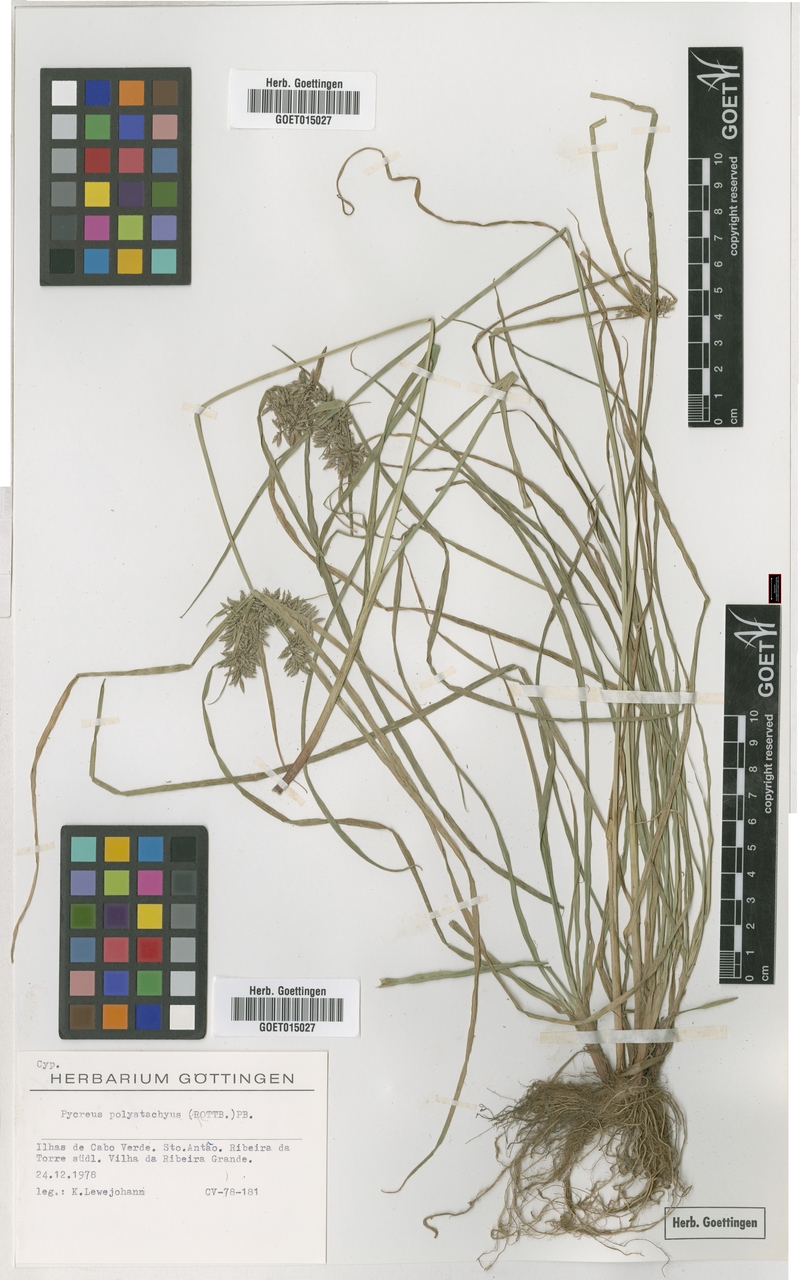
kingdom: Plantae
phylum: Tracheophyta
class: Liliopsida
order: Poales
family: Cyperaceae
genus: Cyperus
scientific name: Cyperus polystachyos
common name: Bunchy flat sedge
